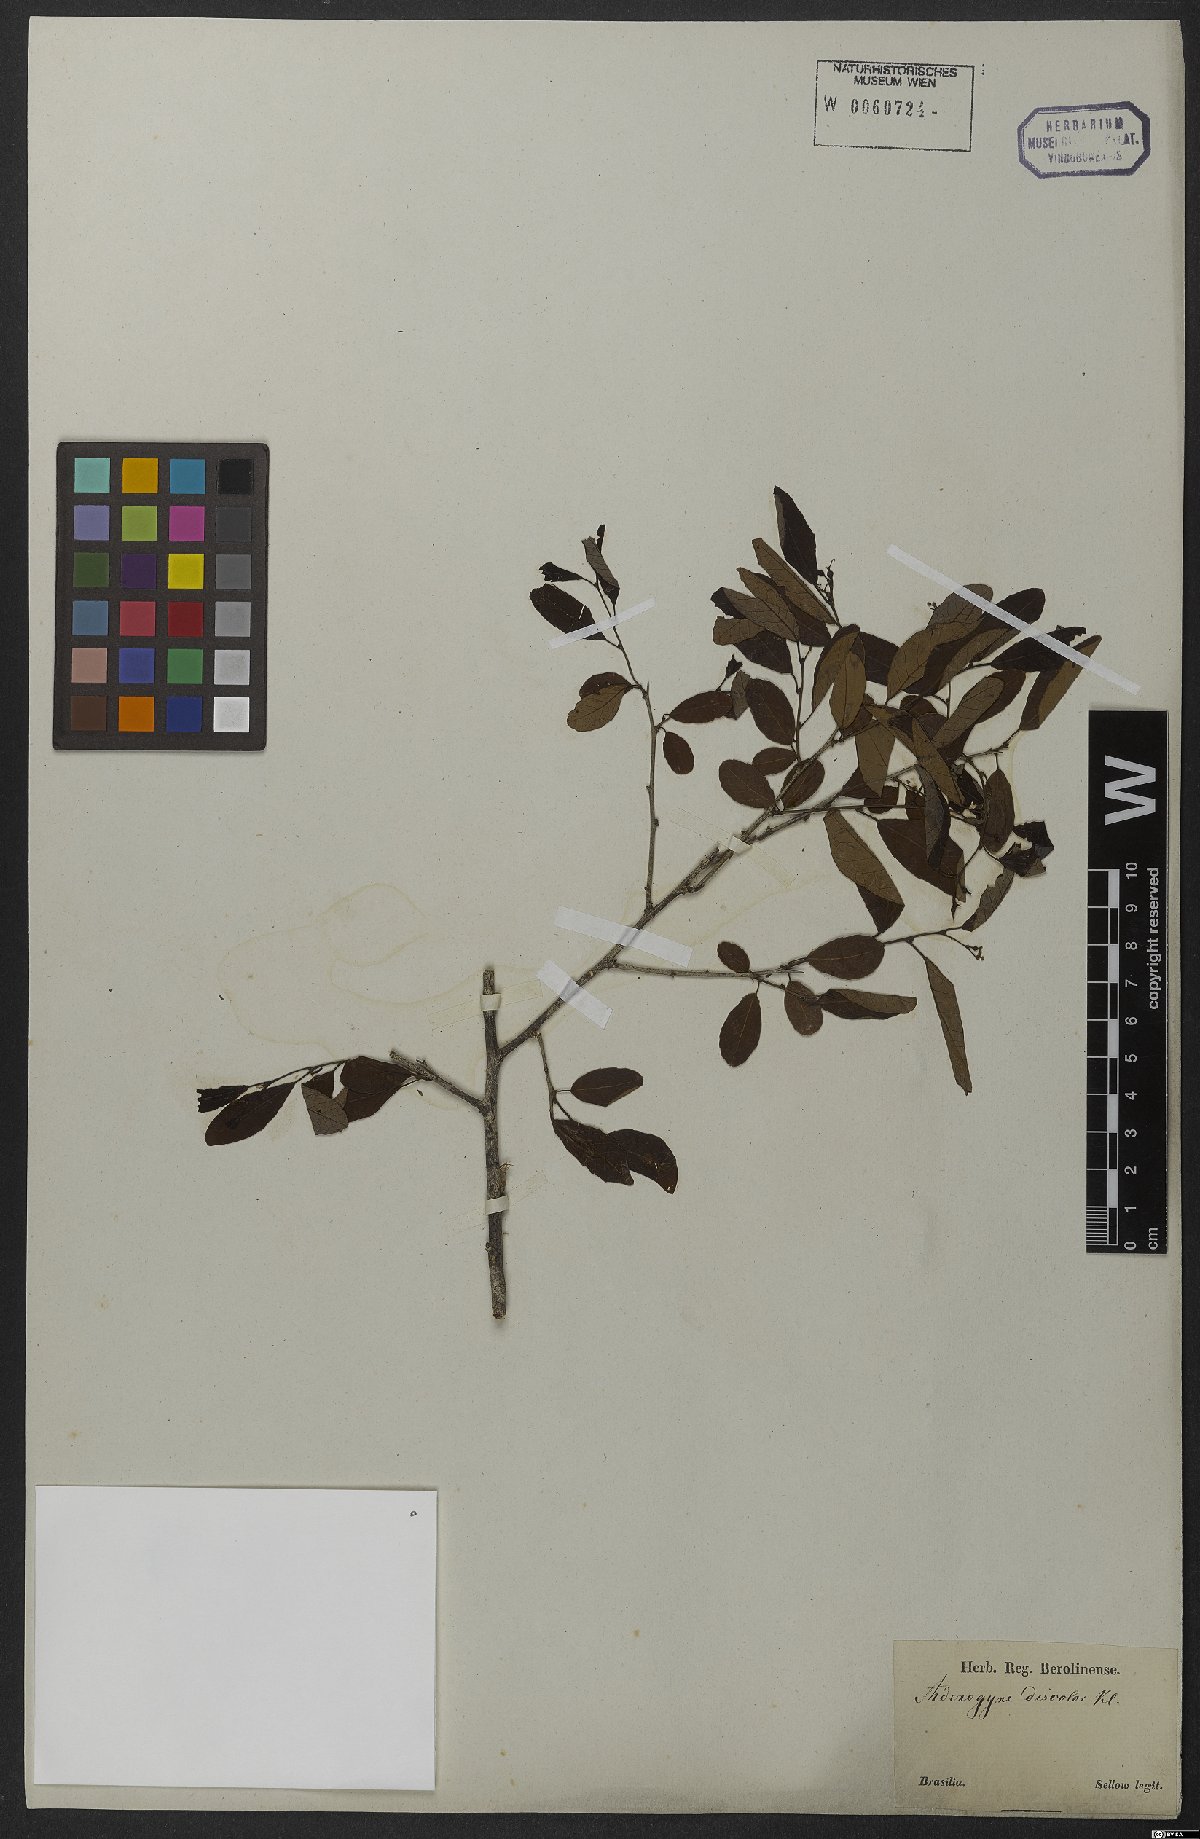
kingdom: Plantae
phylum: Tracheophyta
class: Magnoliopsida
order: Malpighiales
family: Euphorbiaceae
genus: Sebastiania
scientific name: Sebastiania klotzschiana
